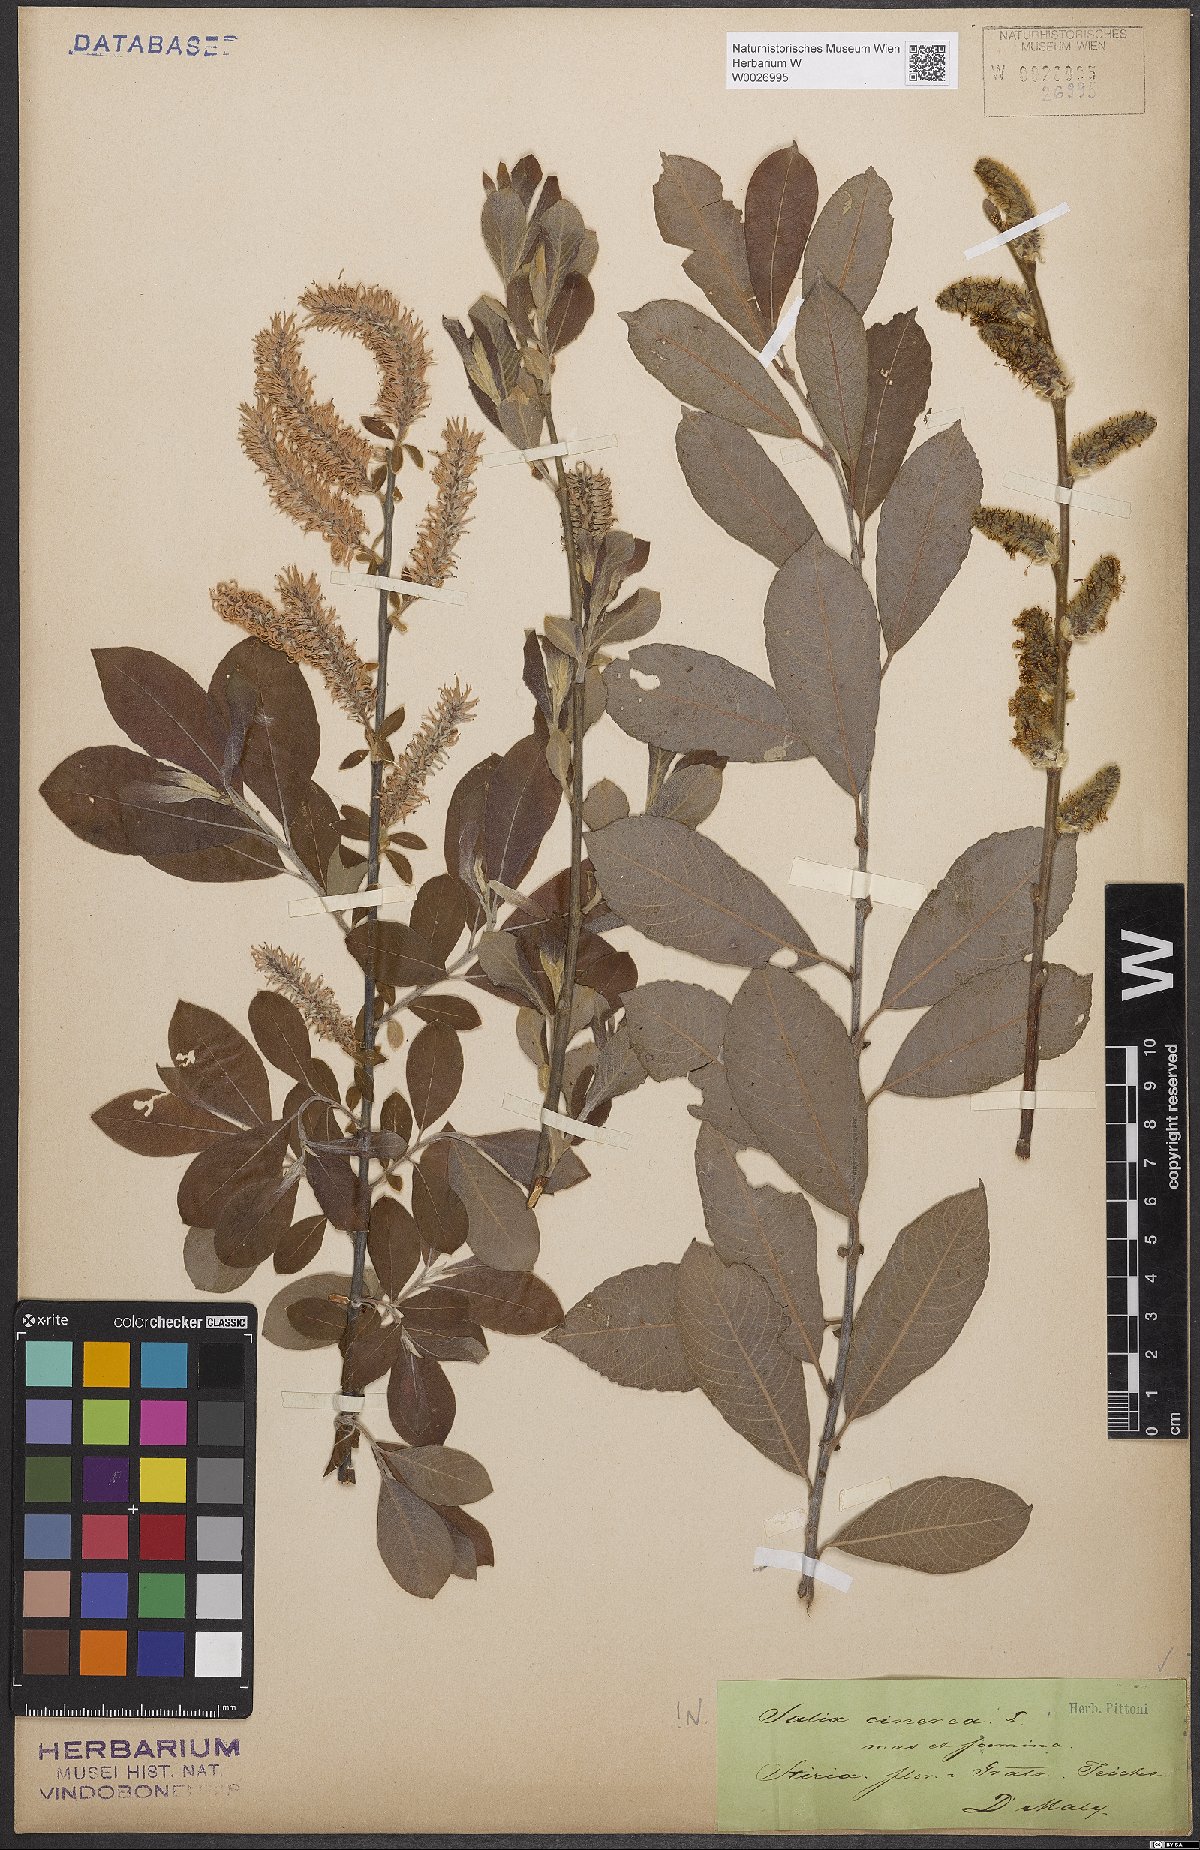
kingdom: Plantae
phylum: Tracheophyta
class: Magnoliopsida
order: Malpighiales
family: Salicaceae
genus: Salix
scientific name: Salix cinerea
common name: Common sallow
